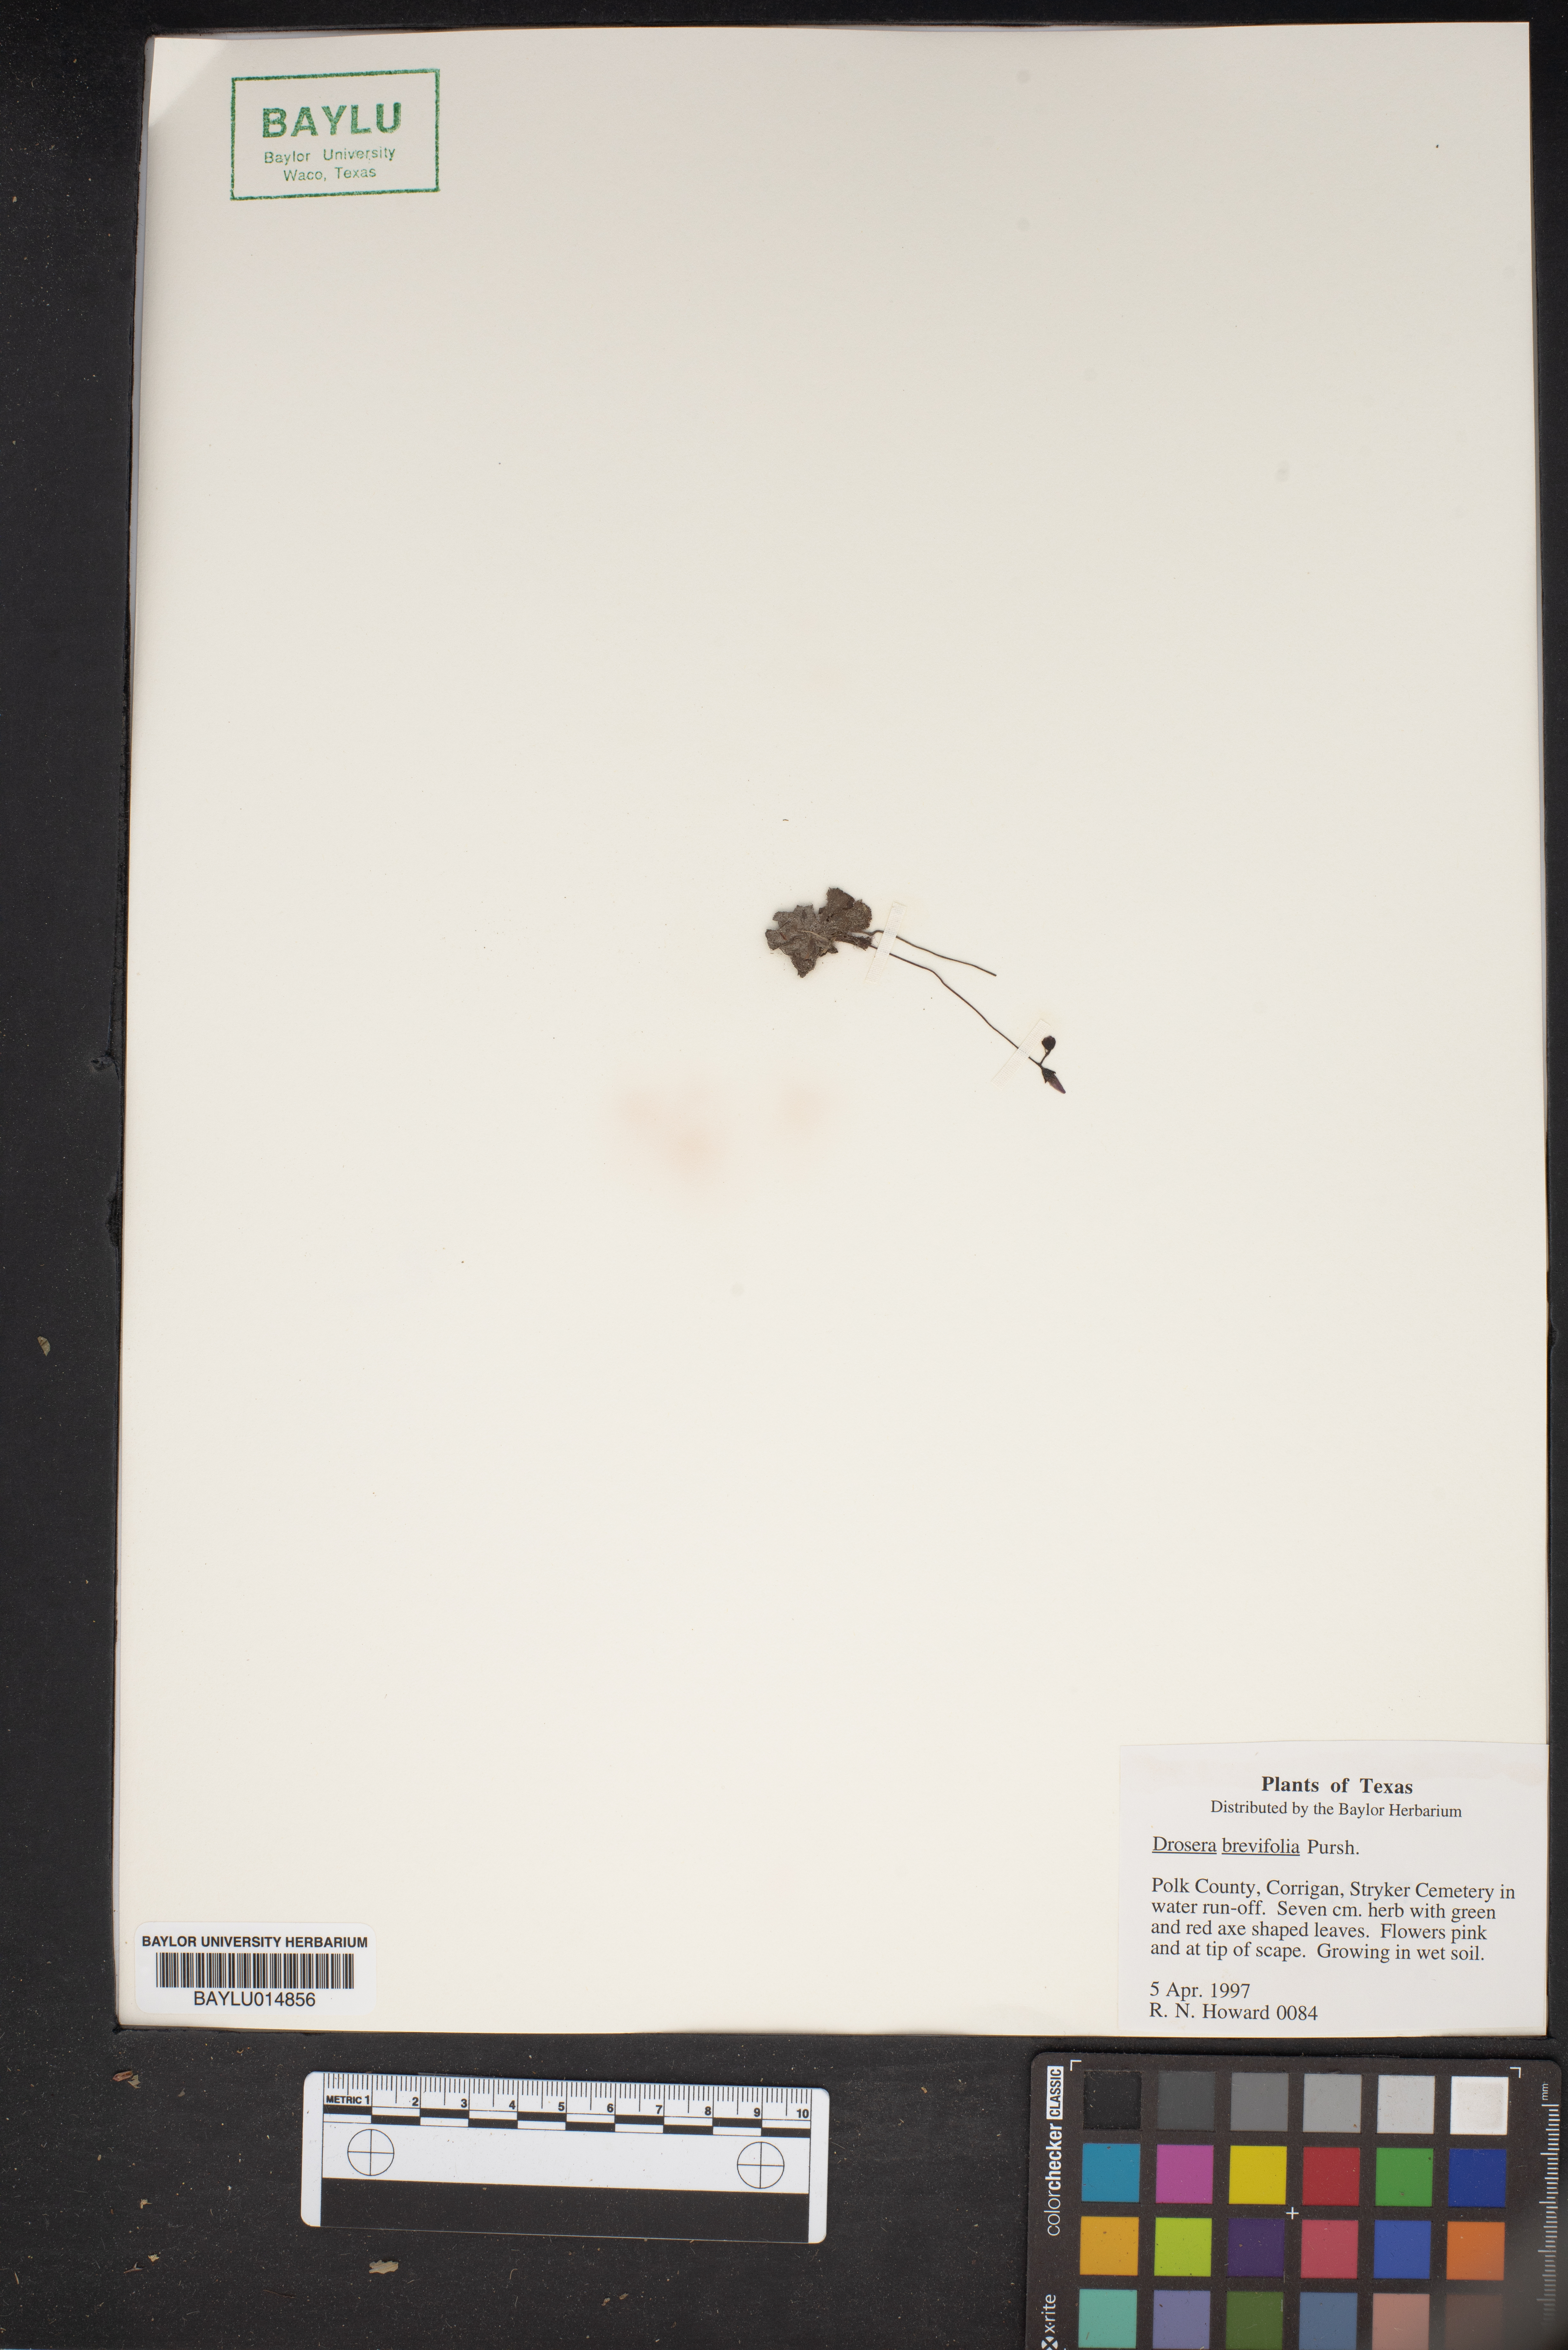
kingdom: Plantae
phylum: Tracheophyta
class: Magnoliopsida
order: Caryophyllales
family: Droseraceae
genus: Drosera
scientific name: Drosera brevifolia
